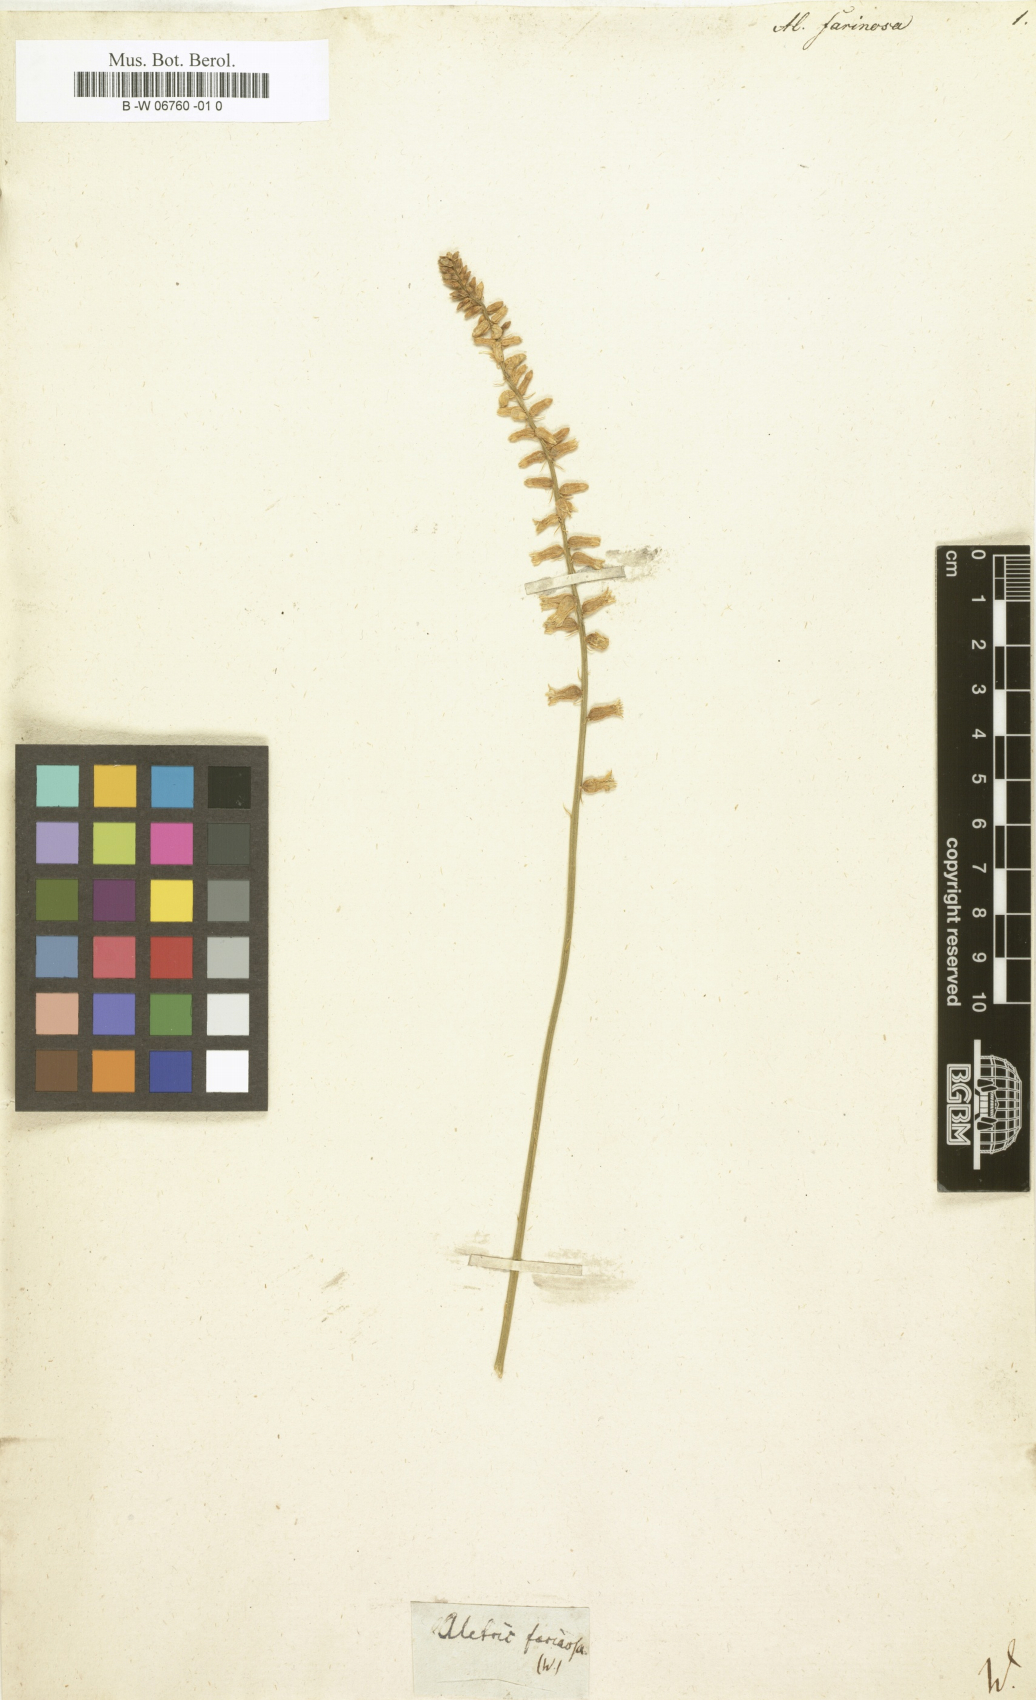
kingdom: Plantae
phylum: Tracheophyta
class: Liliopsida
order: Dioscoreales
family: Nartheciaceae
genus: Aletris
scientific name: Aletris farinosa
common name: Colicroot
